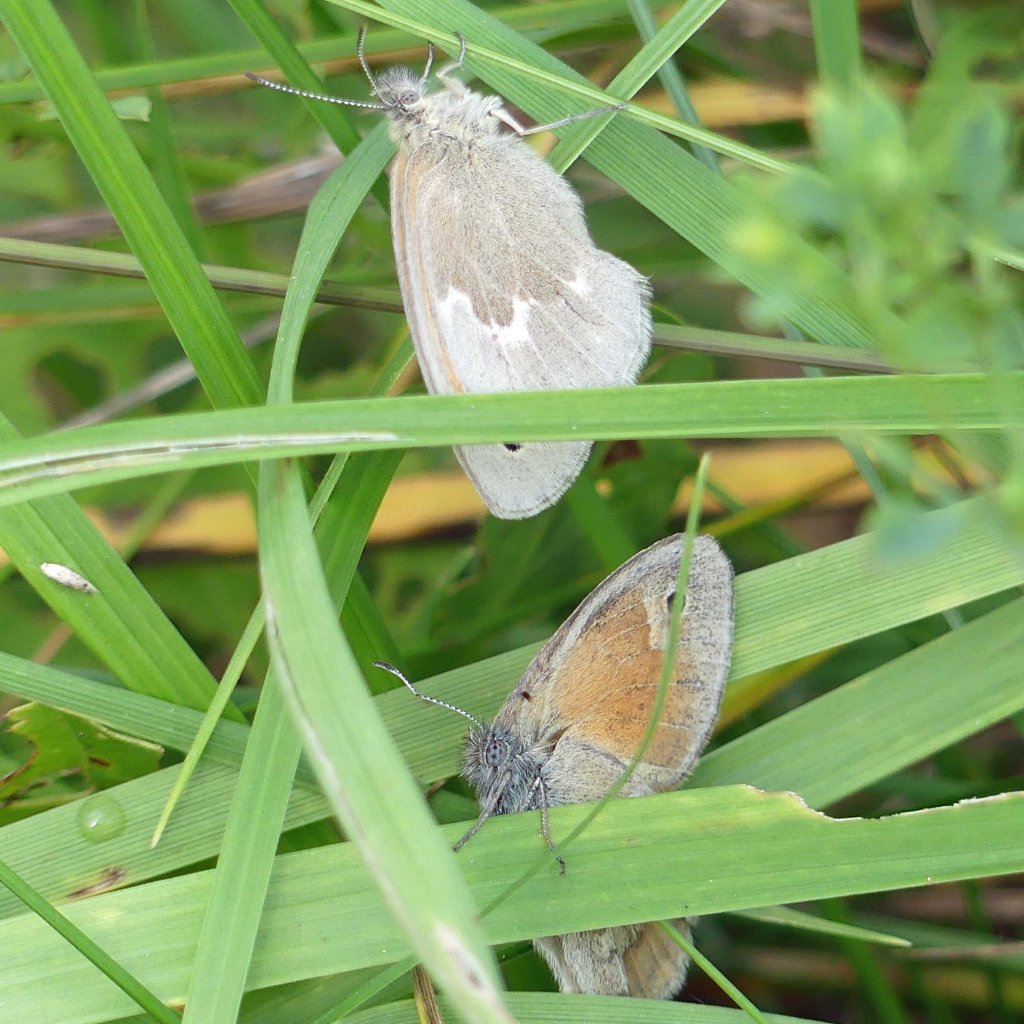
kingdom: Animalia
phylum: Arthropoda
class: Insecta
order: Lepidoptera
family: Nymphalidae
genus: Coenonympha
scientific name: Coenonympha tullia
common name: Large Heath
